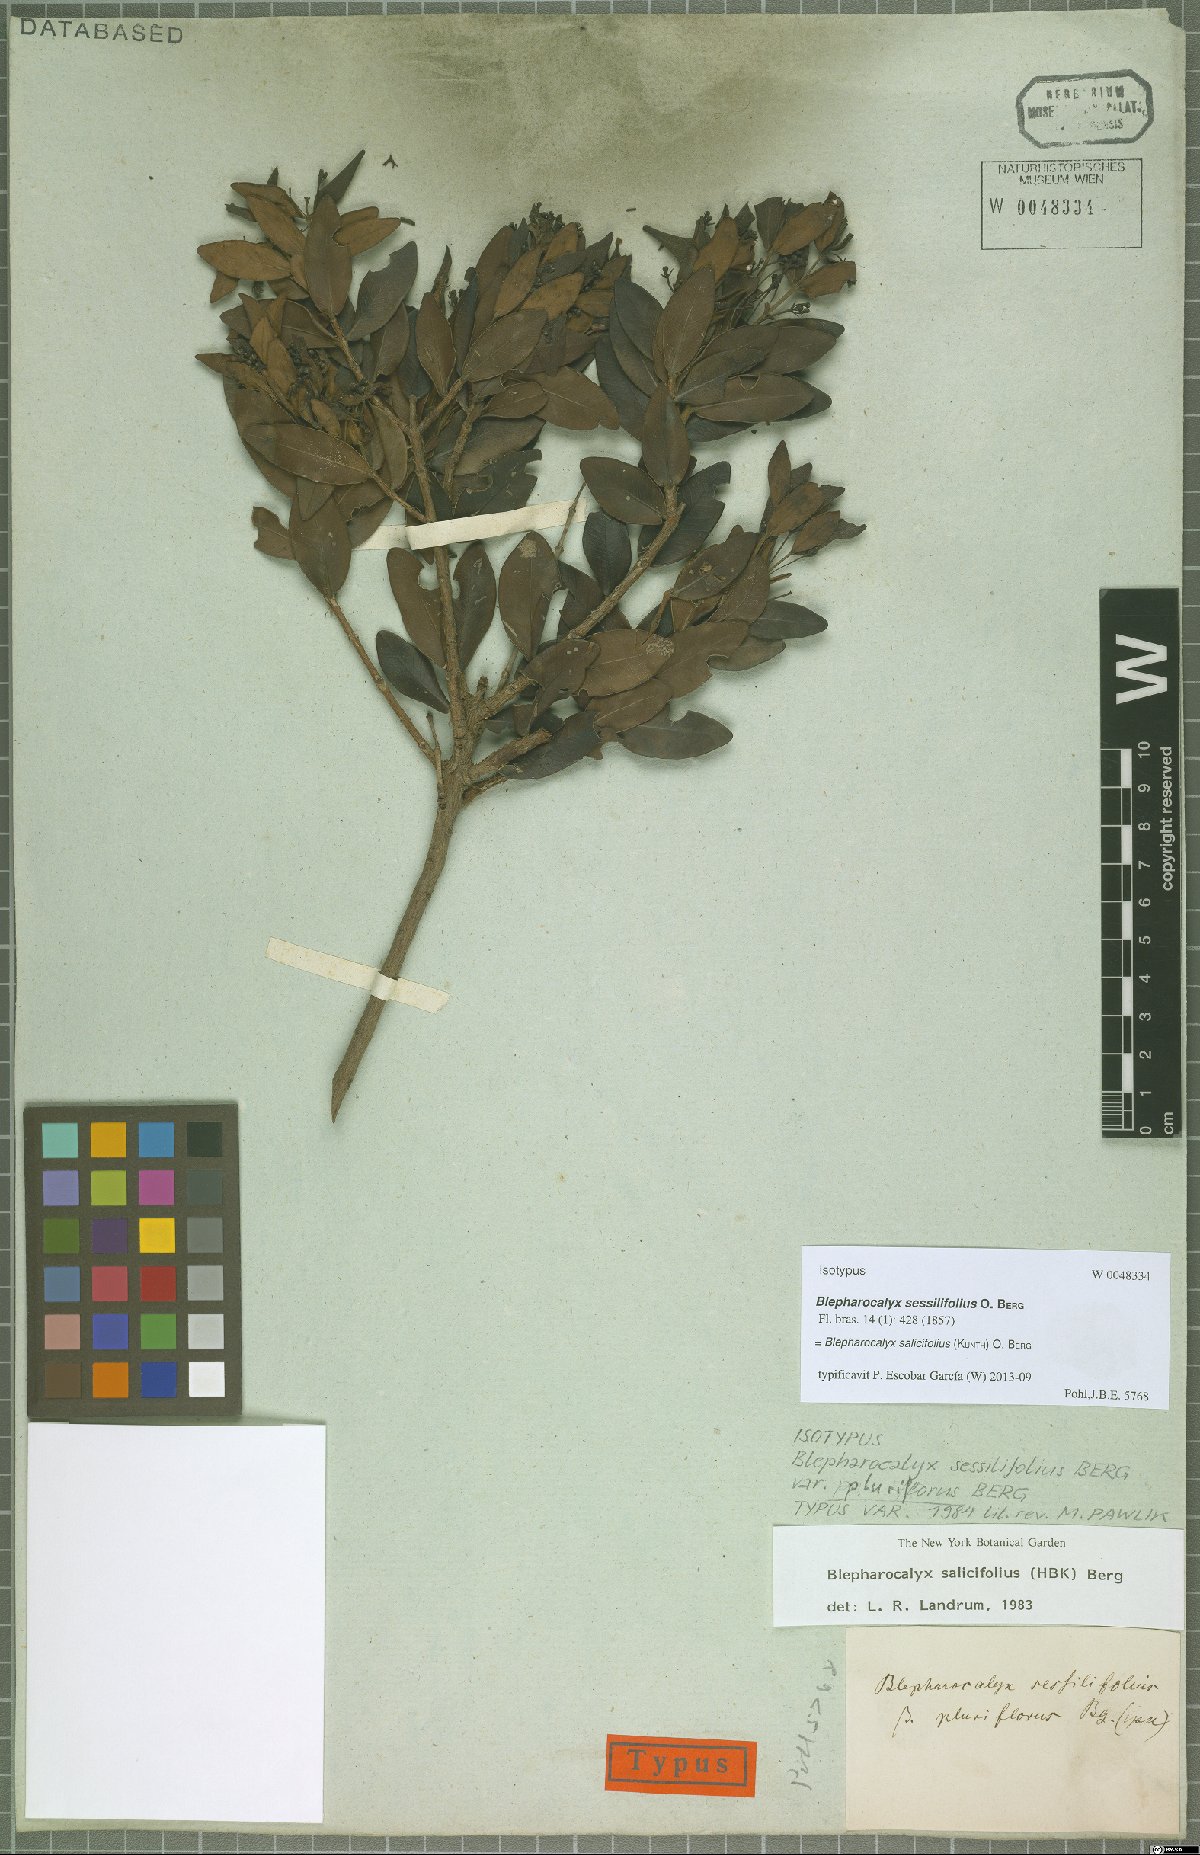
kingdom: Plantae
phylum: Tracheophyta
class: Magnoliopsida
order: Myrtales
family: Myrtaceae
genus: Blepharocalyx
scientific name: Blepharocalyx salicifolius
